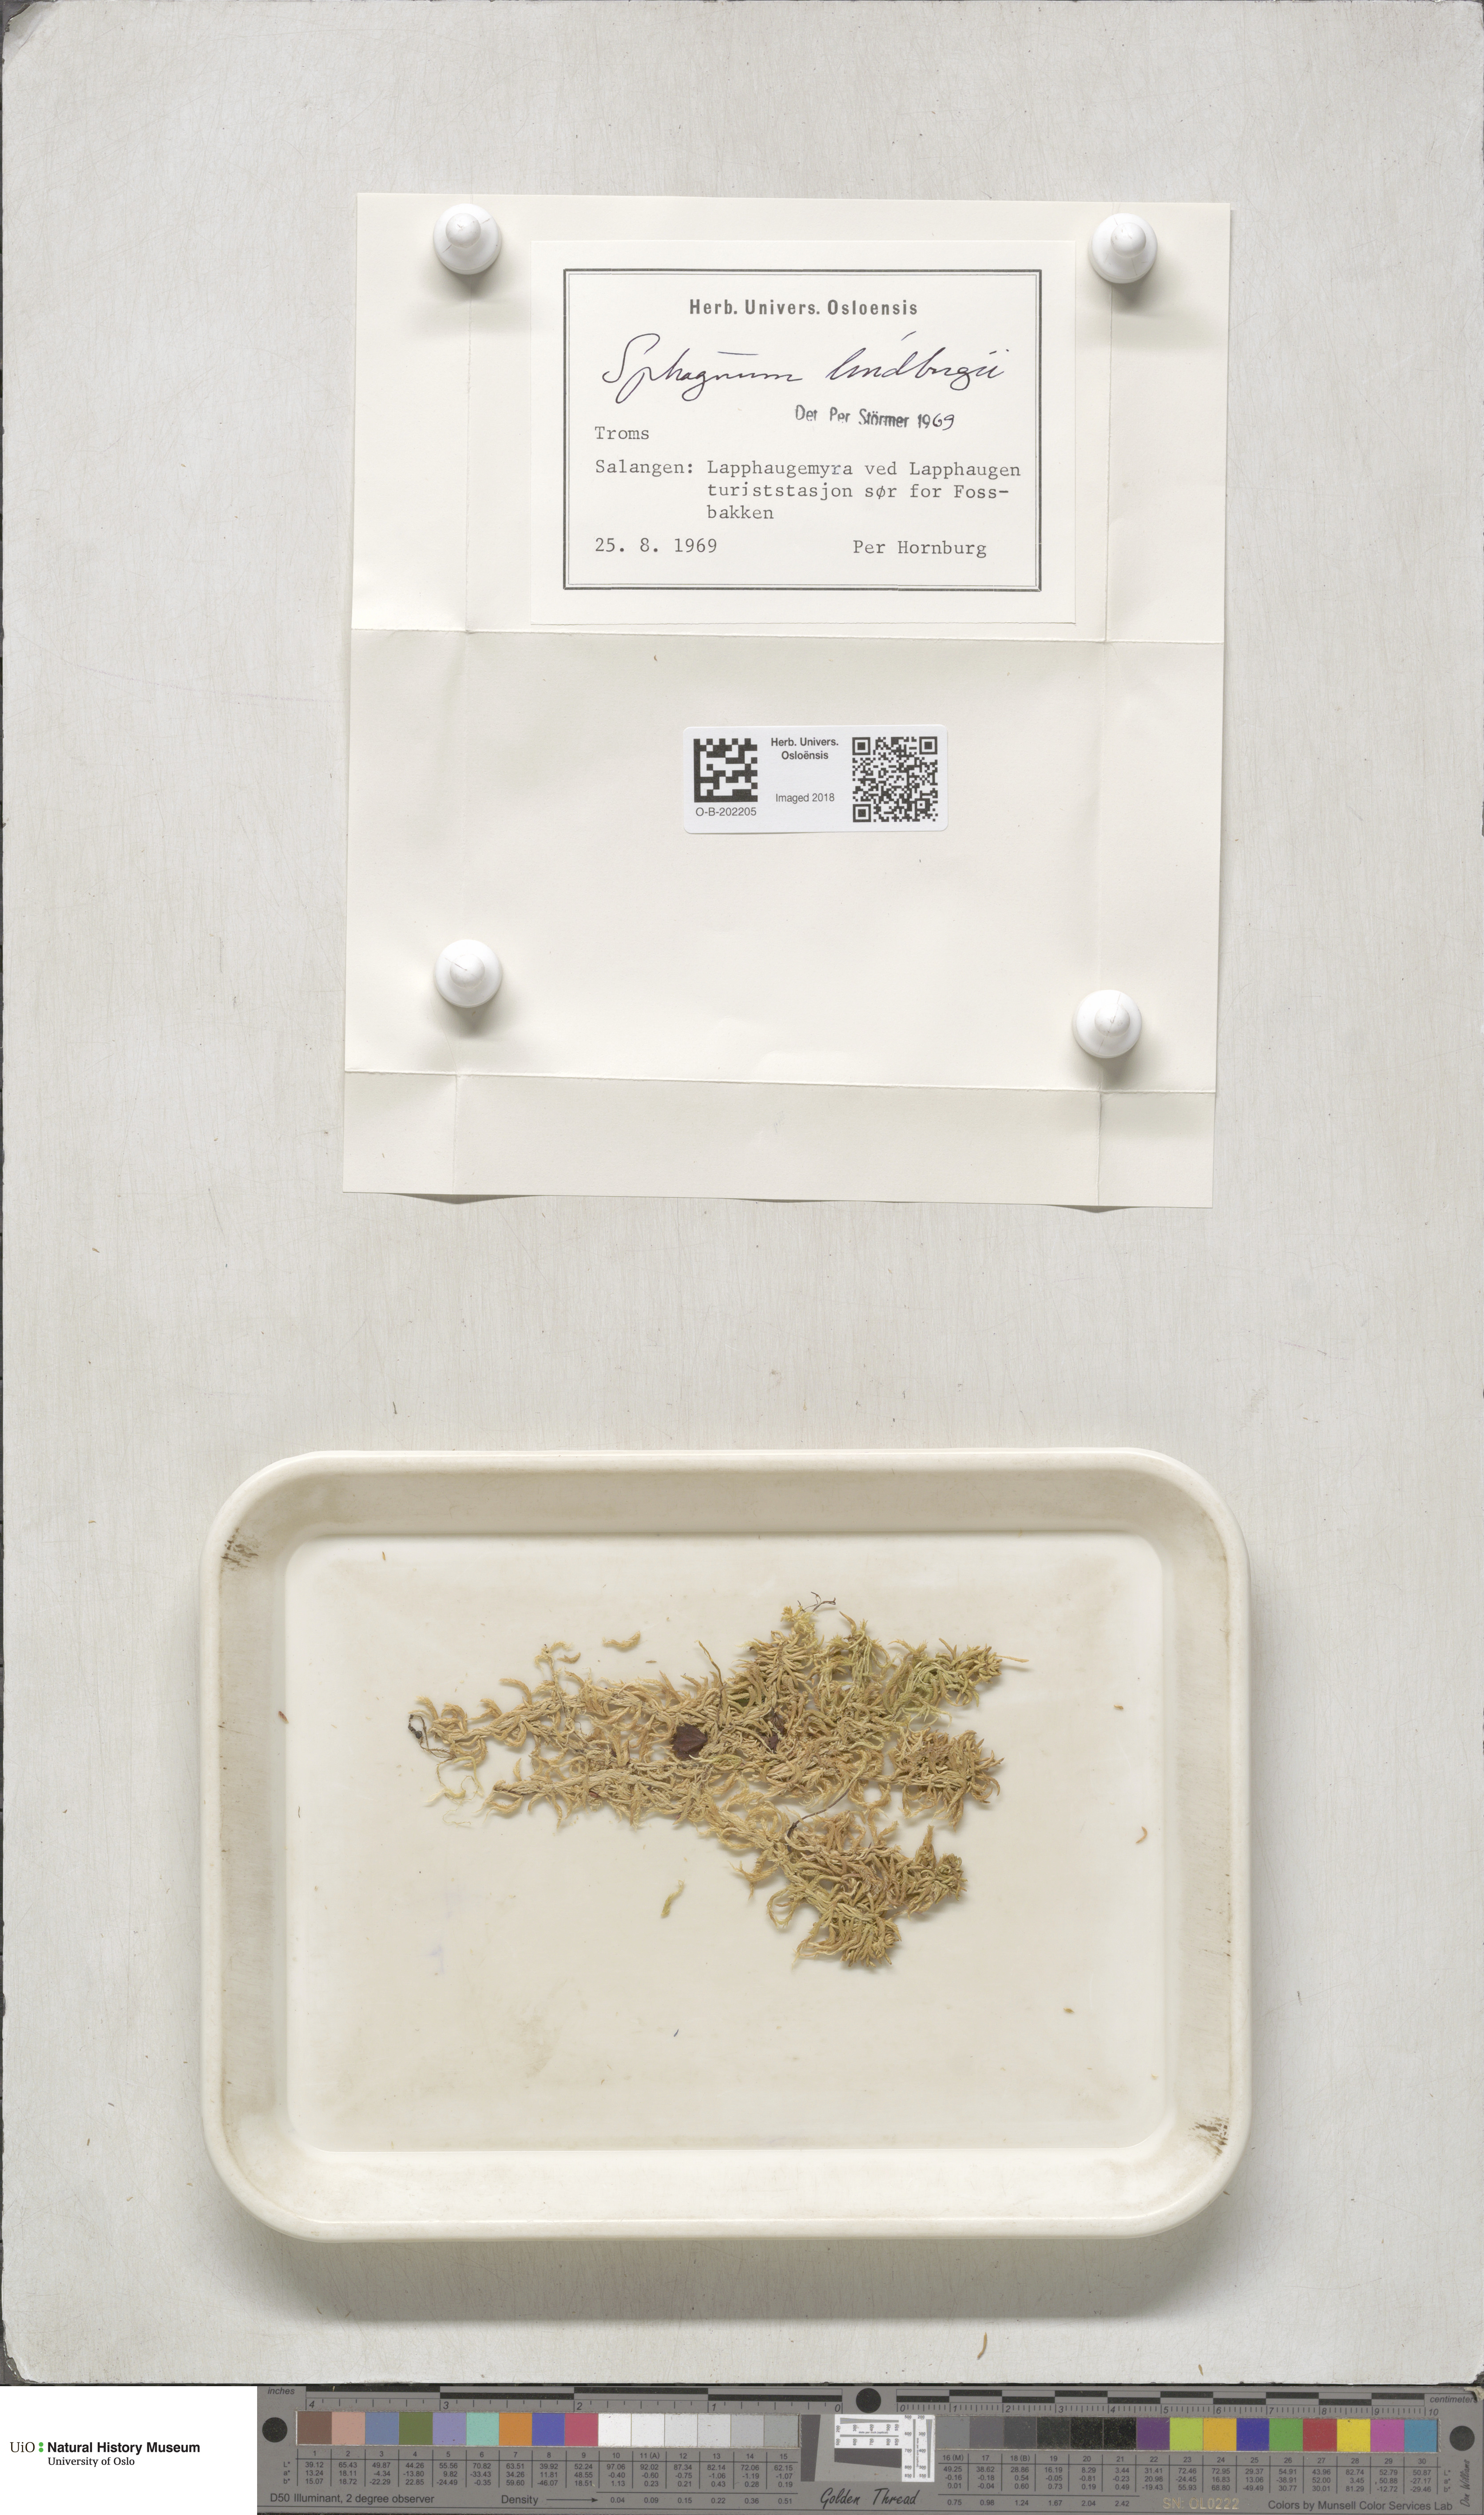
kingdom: Plantae
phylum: Bryophyta
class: Sphagnopsida
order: Sphagnales
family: Sphagnaceae
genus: Sphagnum
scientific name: Sphagnum lindbergii
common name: Lindberg's peat moss
